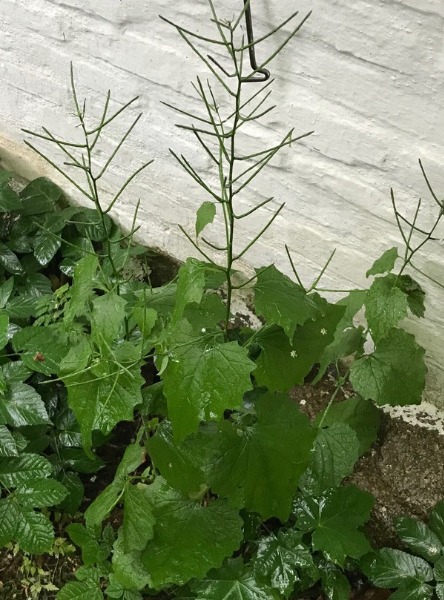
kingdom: Plantae
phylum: Tracheophyta
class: Magnoliopsida
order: Brassicales
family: Brassicaceae
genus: Alliaria
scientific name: Alliaria petiolata
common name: Løgkarse
